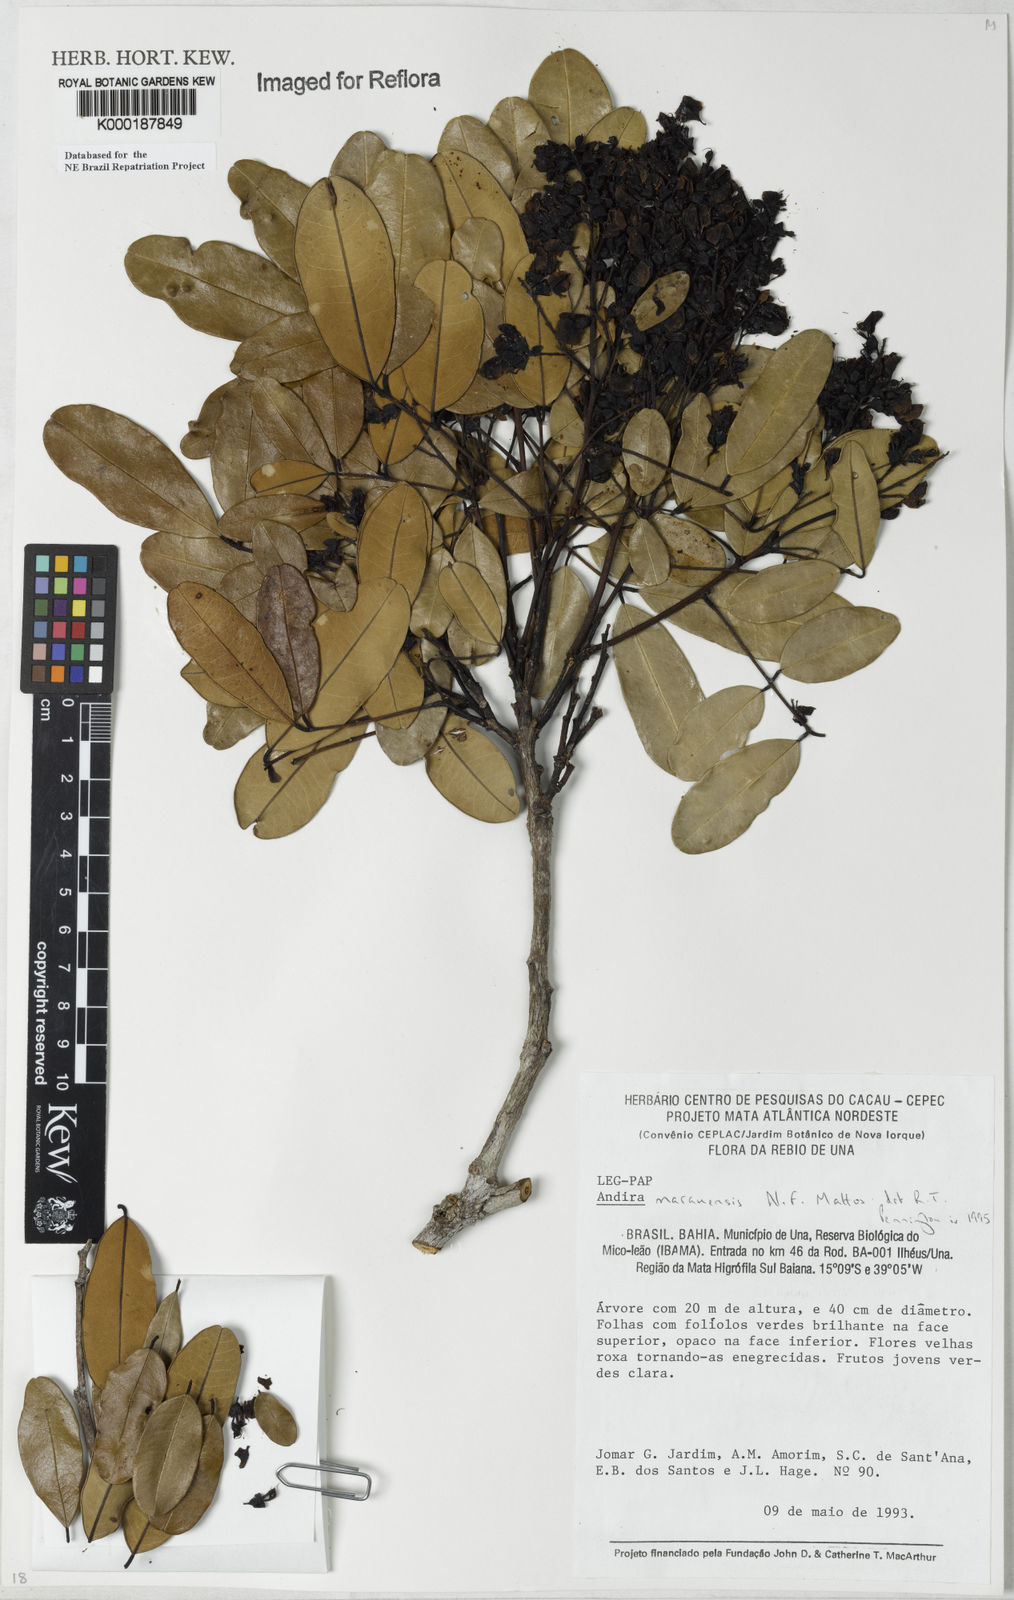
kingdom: Plantae
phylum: Tracheophyta
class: Magnoliopsida
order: Fabales
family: Fabaceae
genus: Andira
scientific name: Andira marauensis
